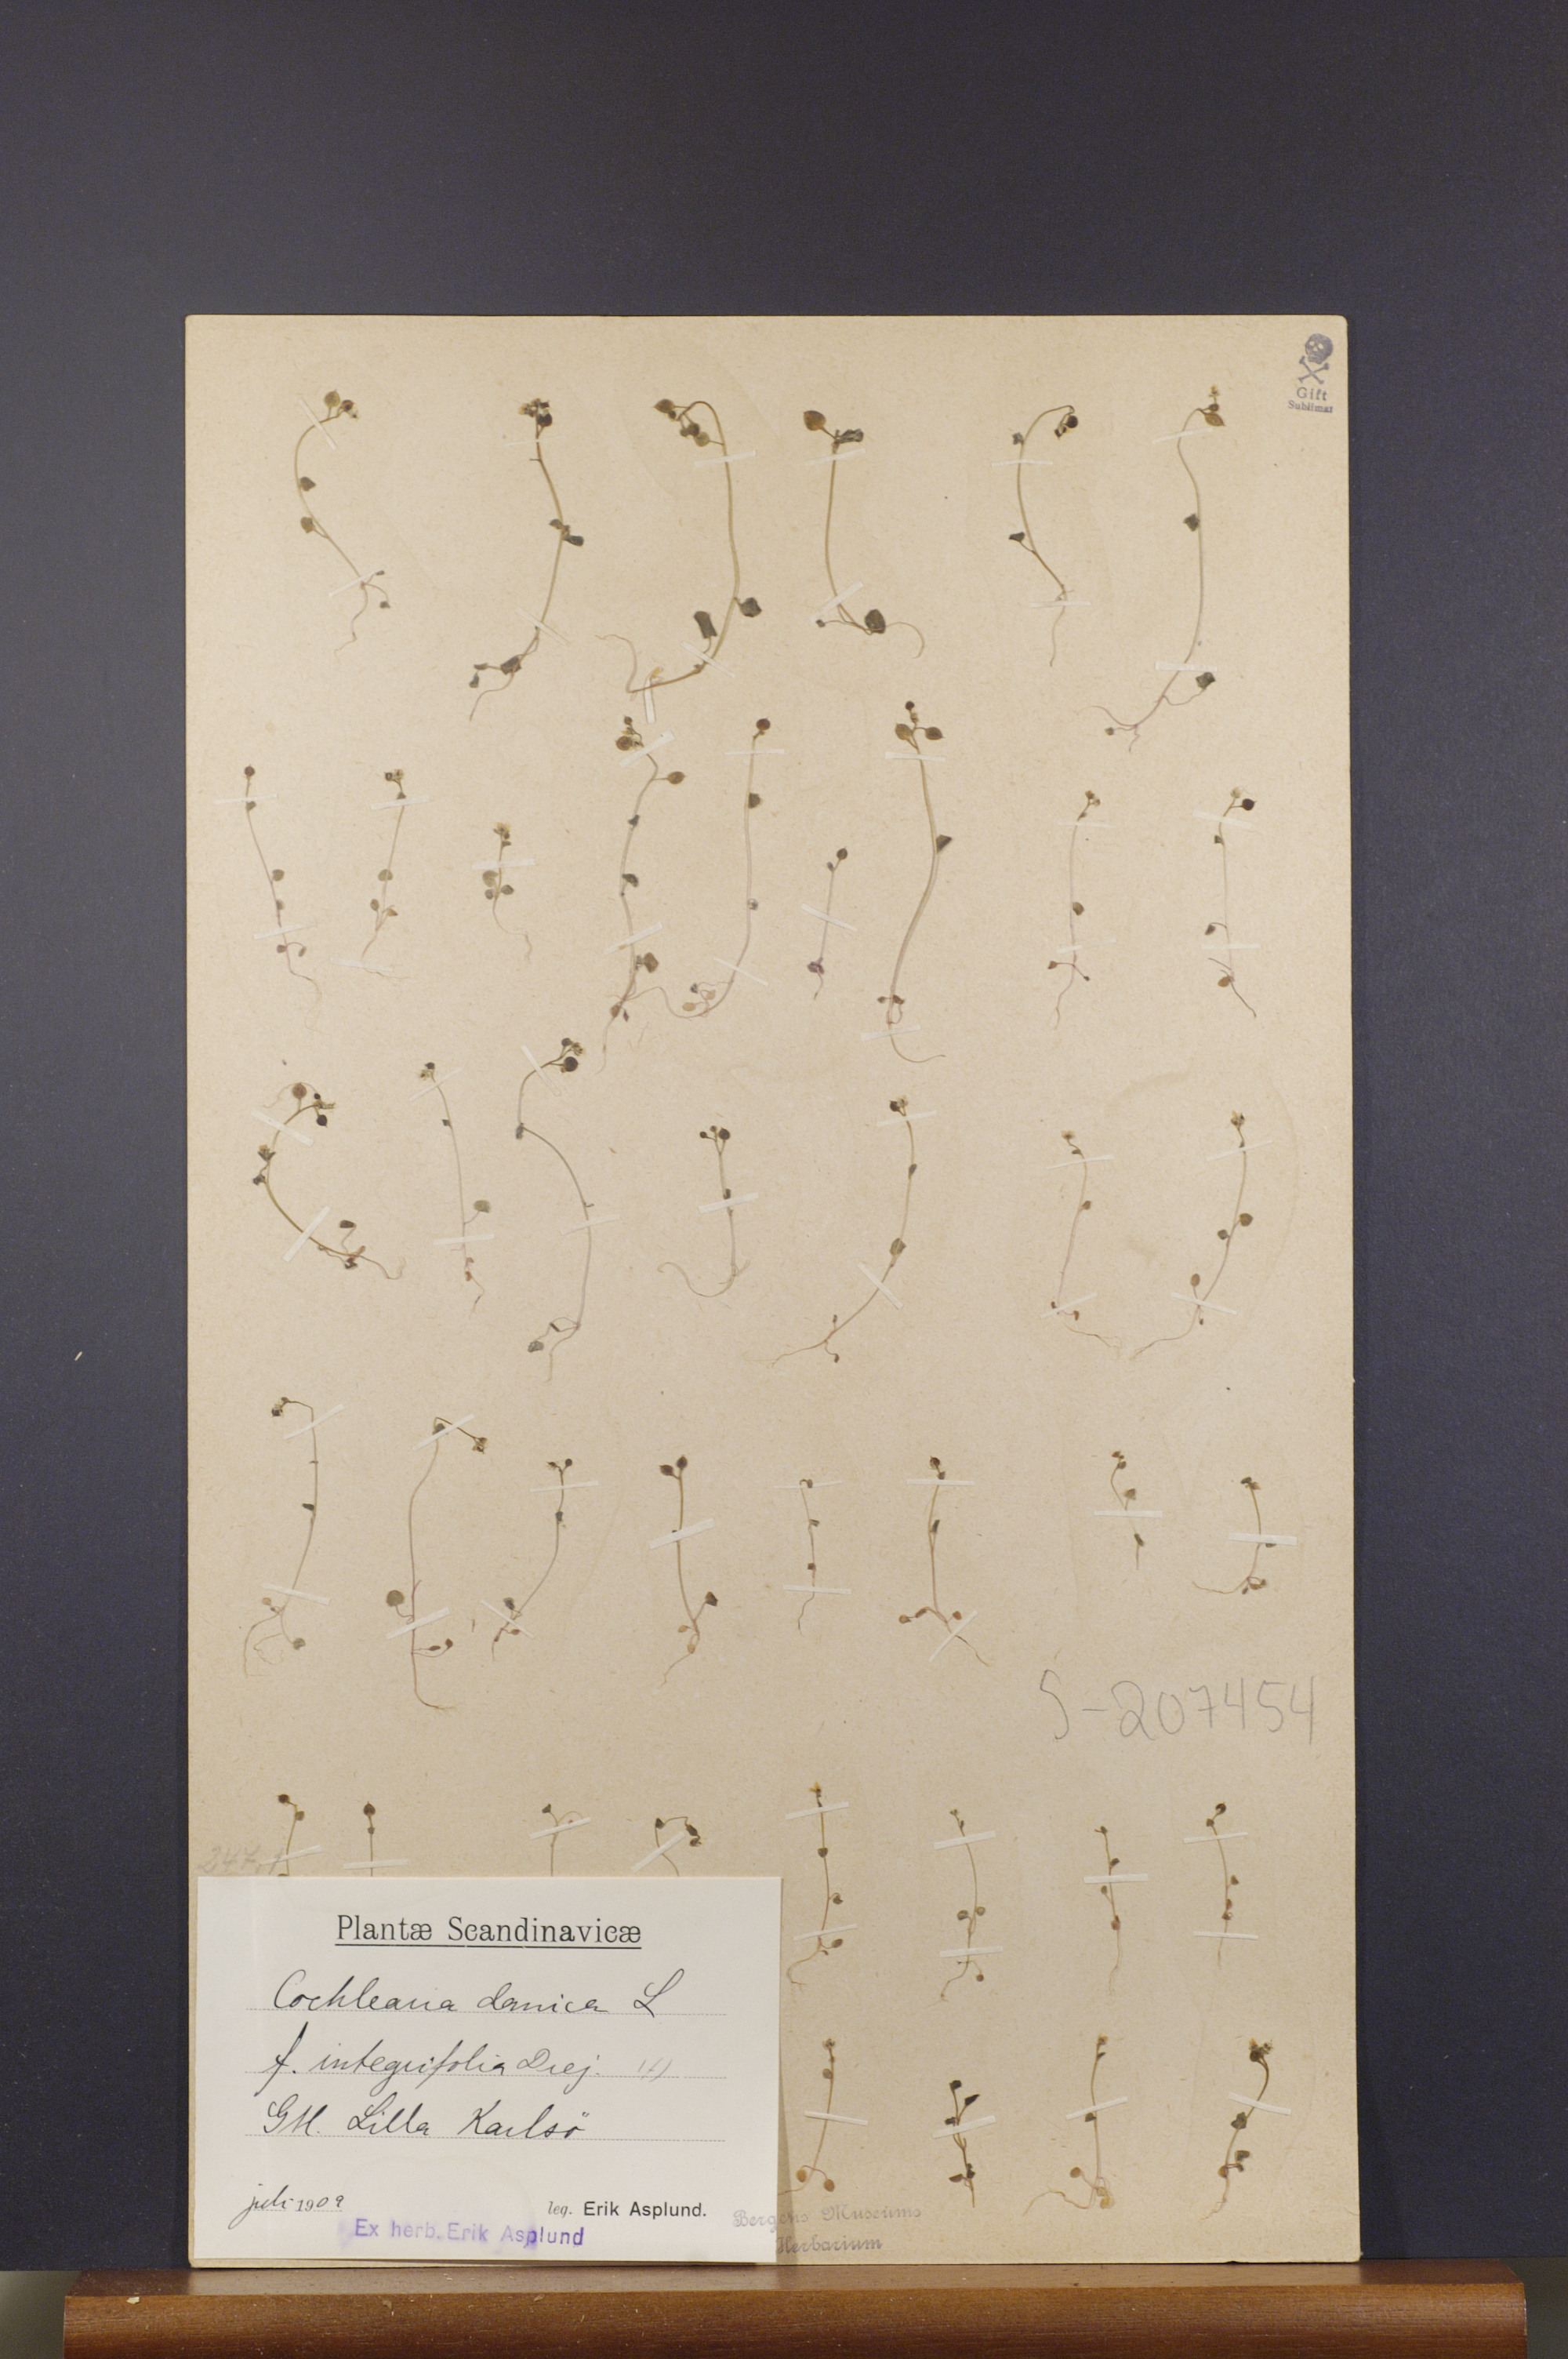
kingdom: Plantae
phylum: Tracheophyta
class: Magnoliopsida
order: Brassicales
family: Brassicaceae
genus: Cochlearia
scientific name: Cochlearia danica
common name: Early scurvygrass
